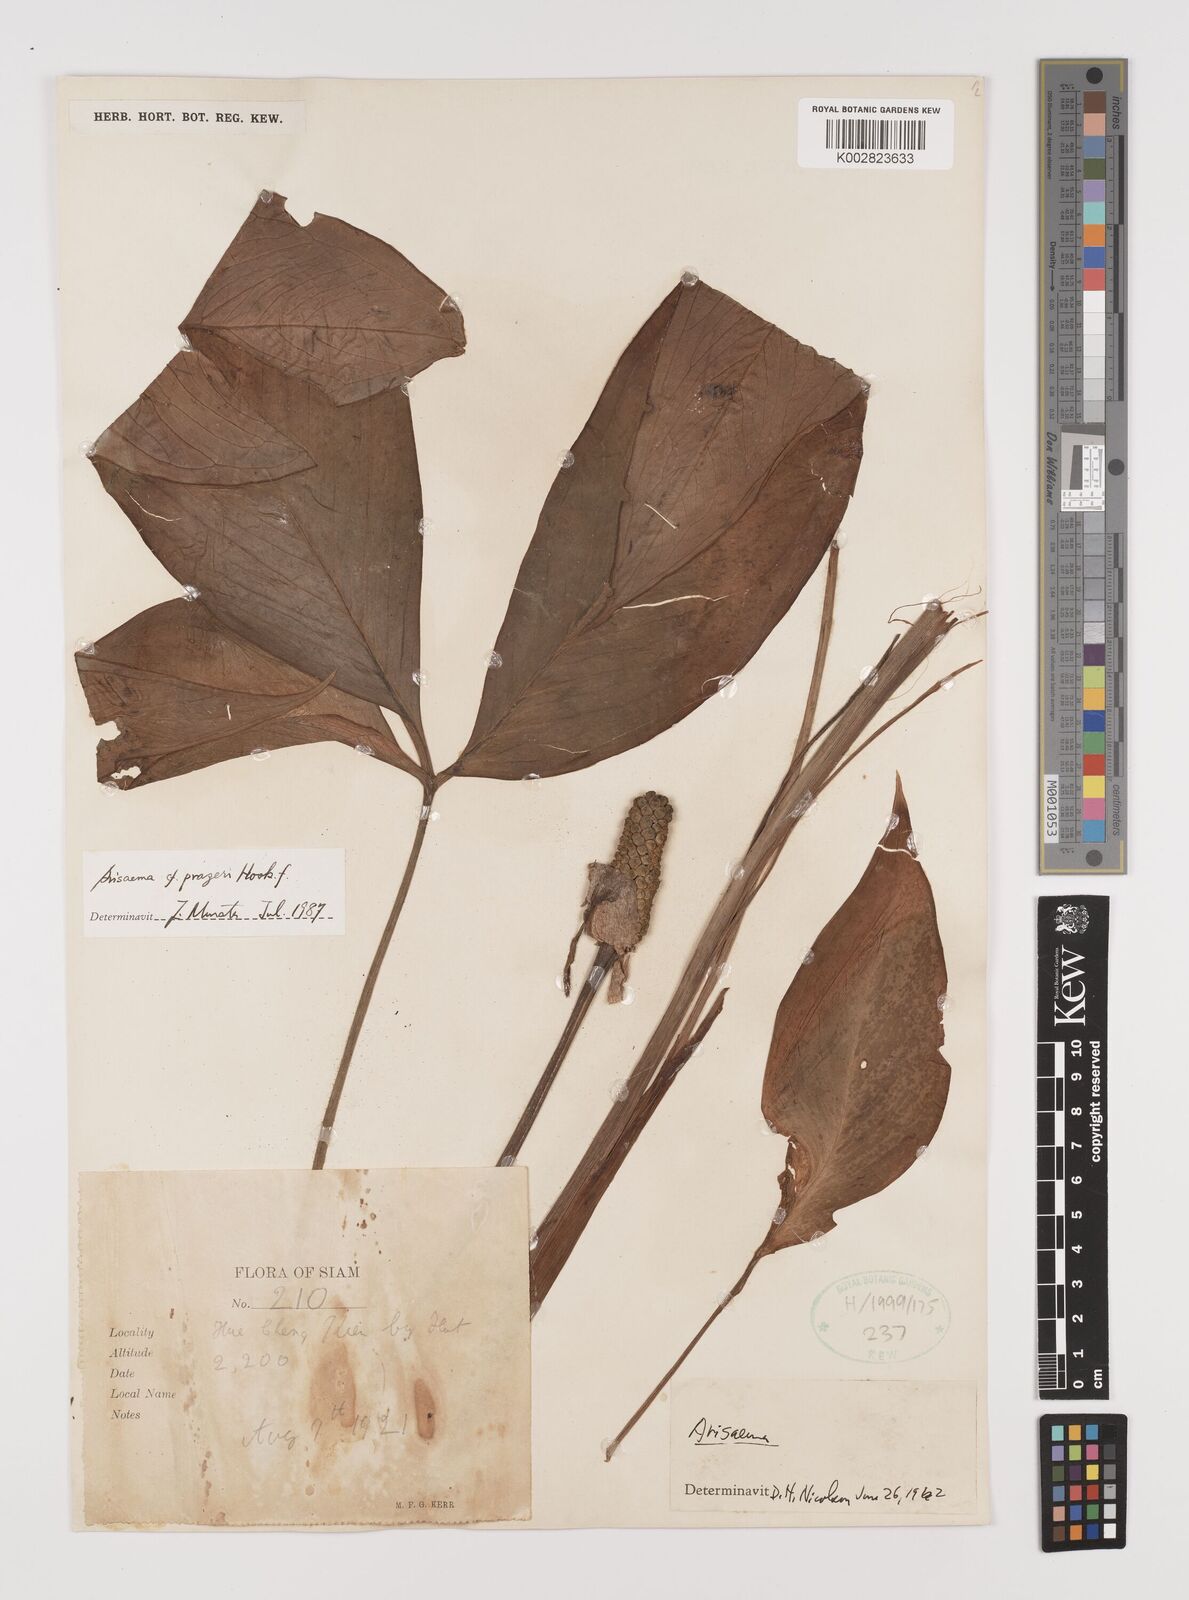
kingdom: Plantae
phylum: Tracheophyta
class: Liliopsida
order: Alismatales
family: Araceae
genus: Arisaema
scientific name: Arisaema prazeri
